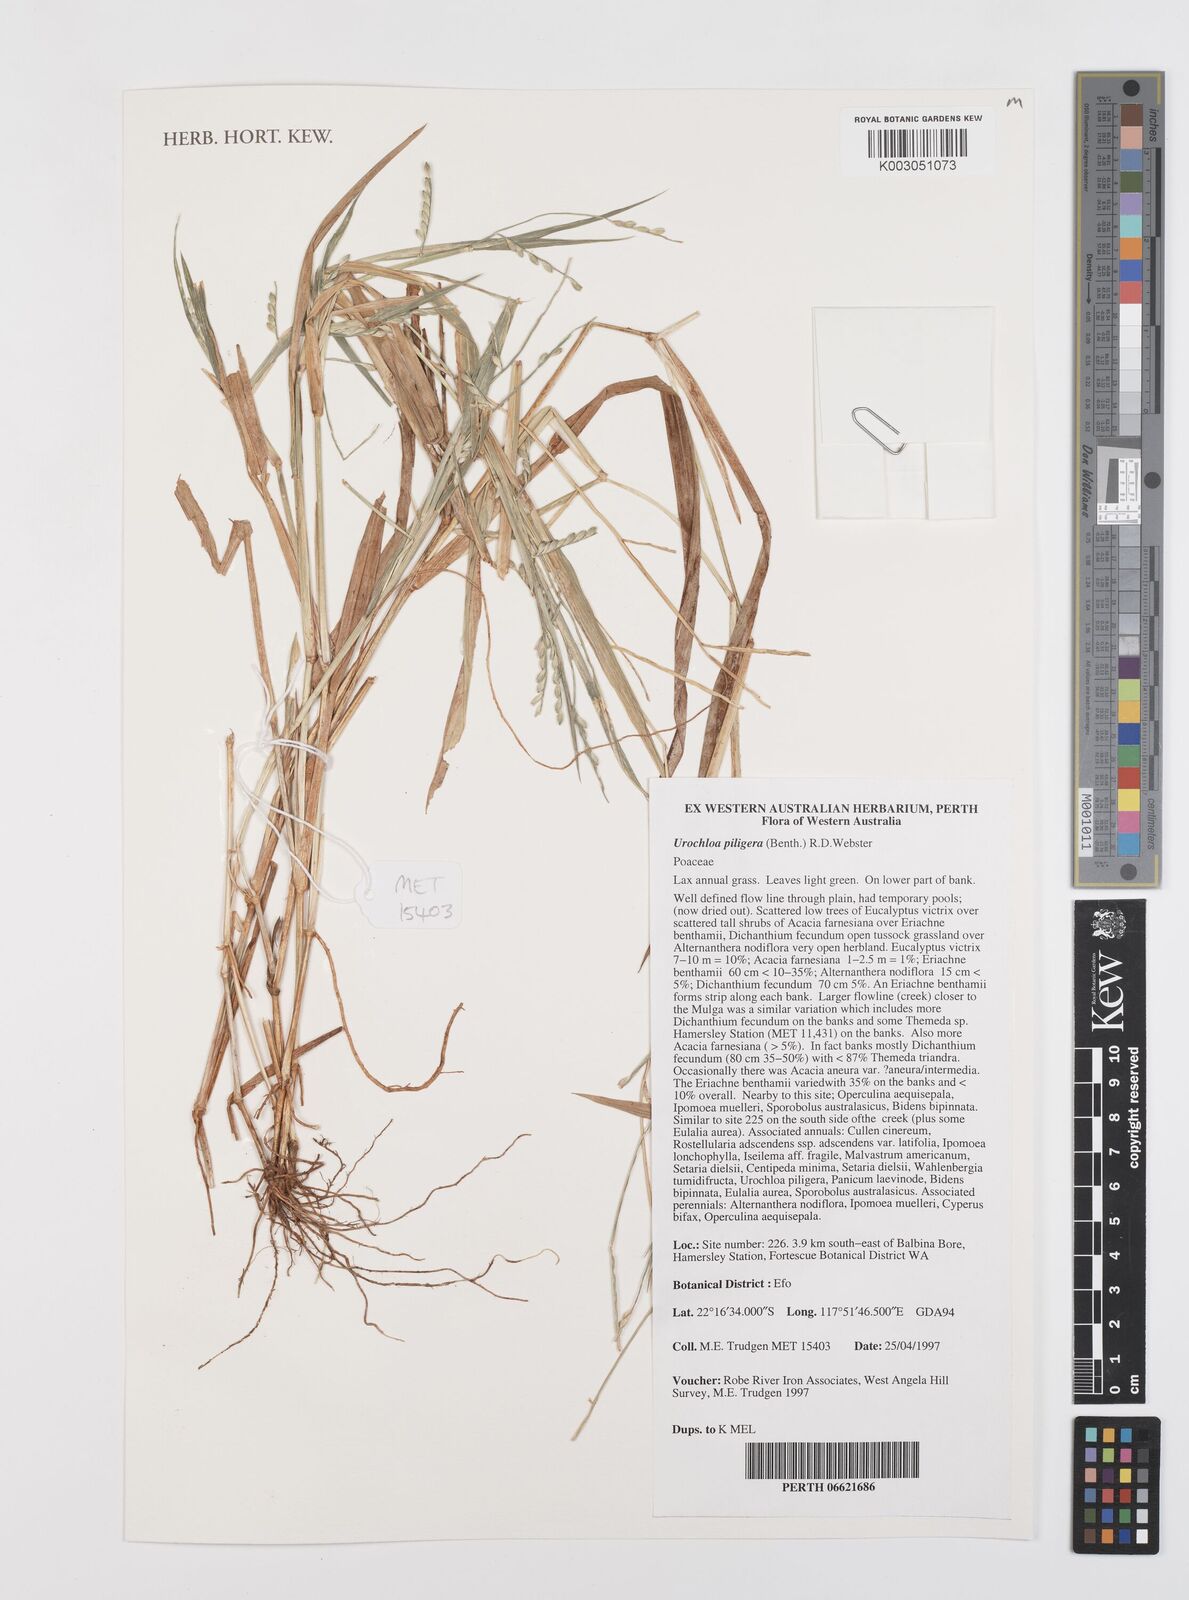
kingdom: Plantae
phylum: Tracheophyta
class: Liliopsida
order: Poales
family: Poaceae
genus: Urochloa
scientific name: Urochloa piligera
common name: Wattle signalgrass
